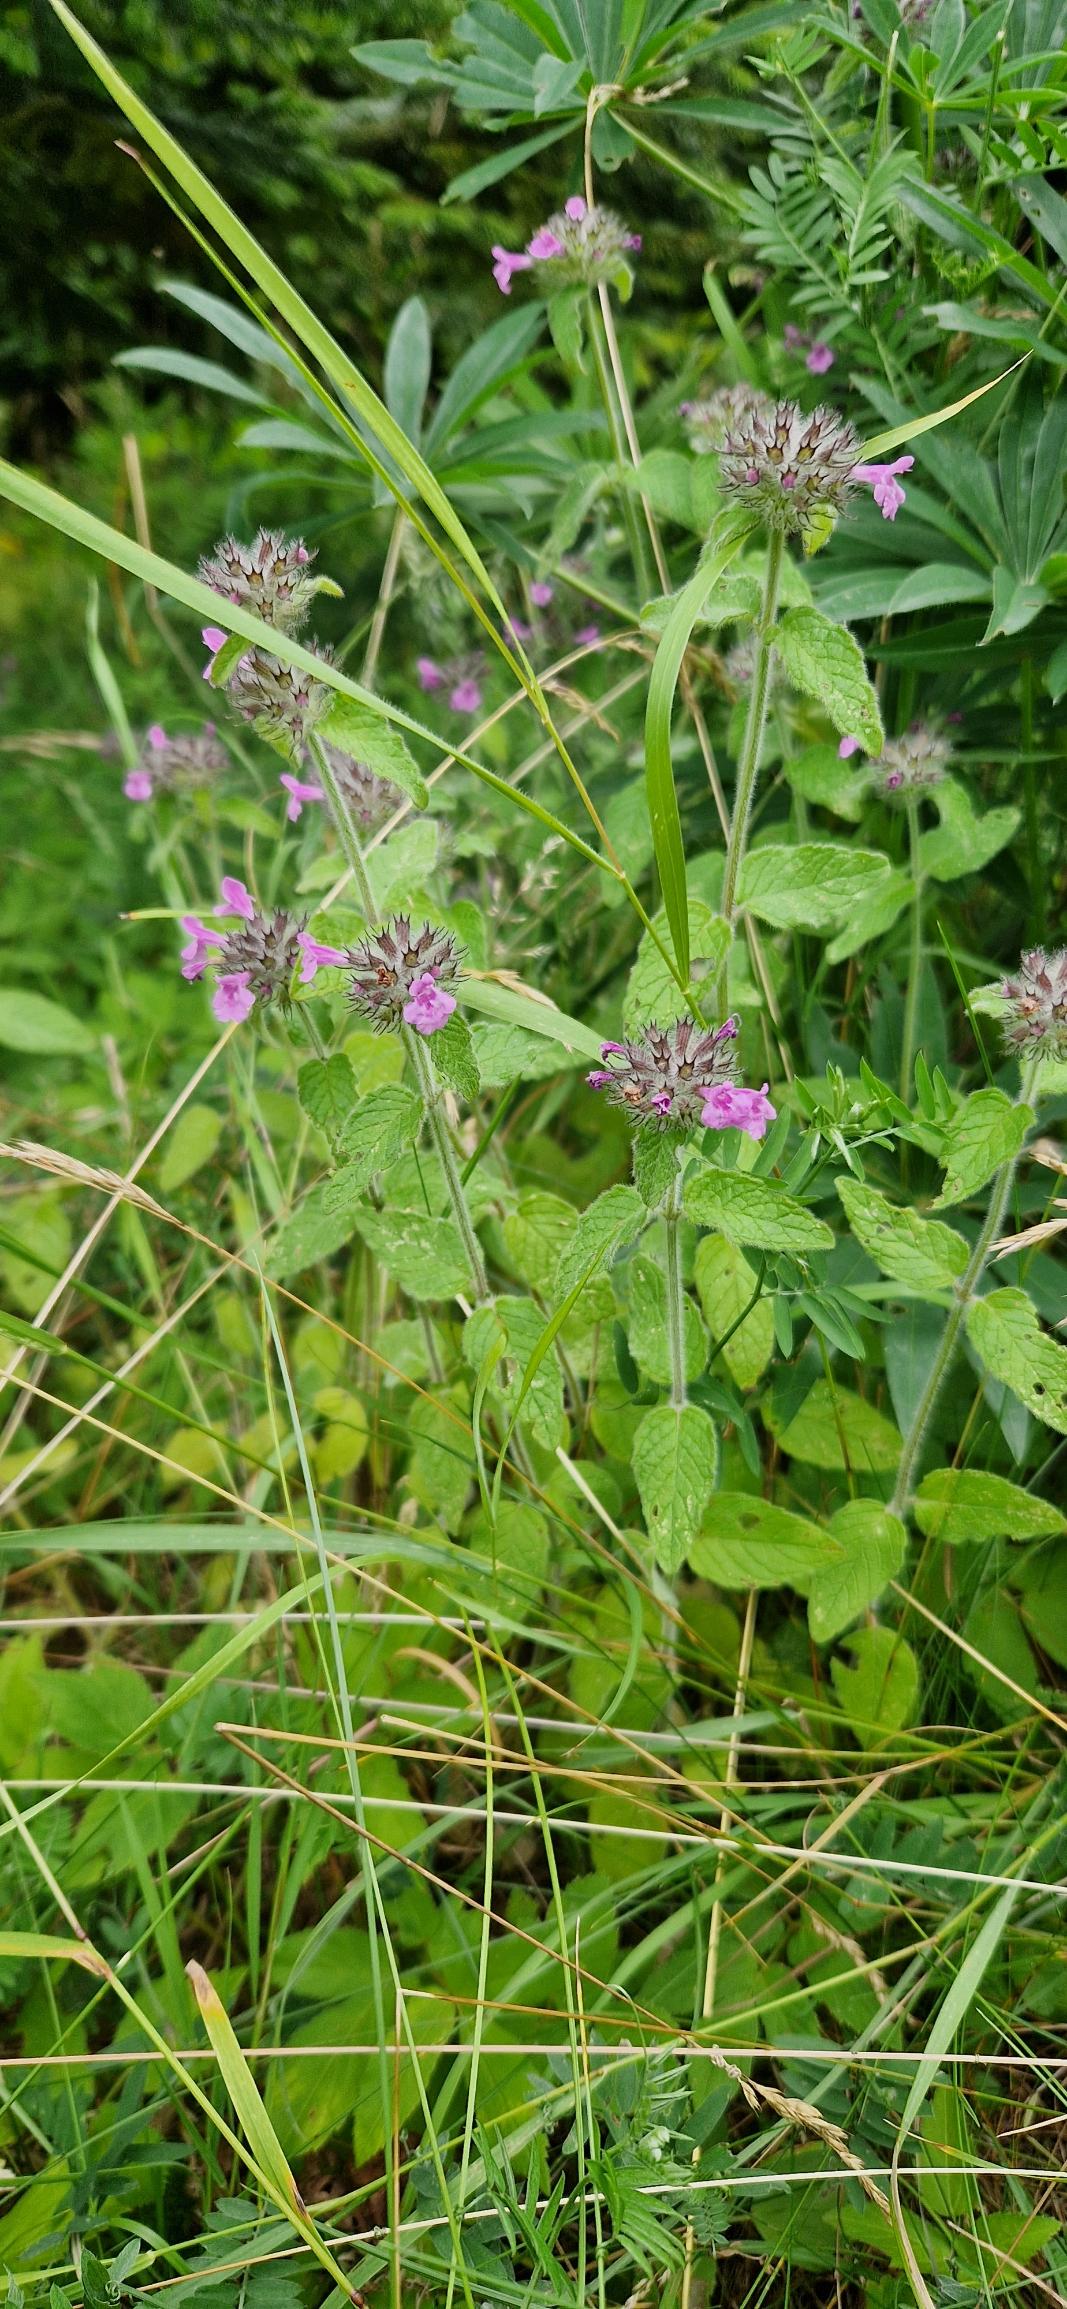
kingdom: Plantae
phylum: Tracheophyta
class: Magnoliopsida
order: Lamiales
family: Lamiaceae
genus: Clinopodium
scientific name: Clinopodium vulgare
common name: Kransbørste
